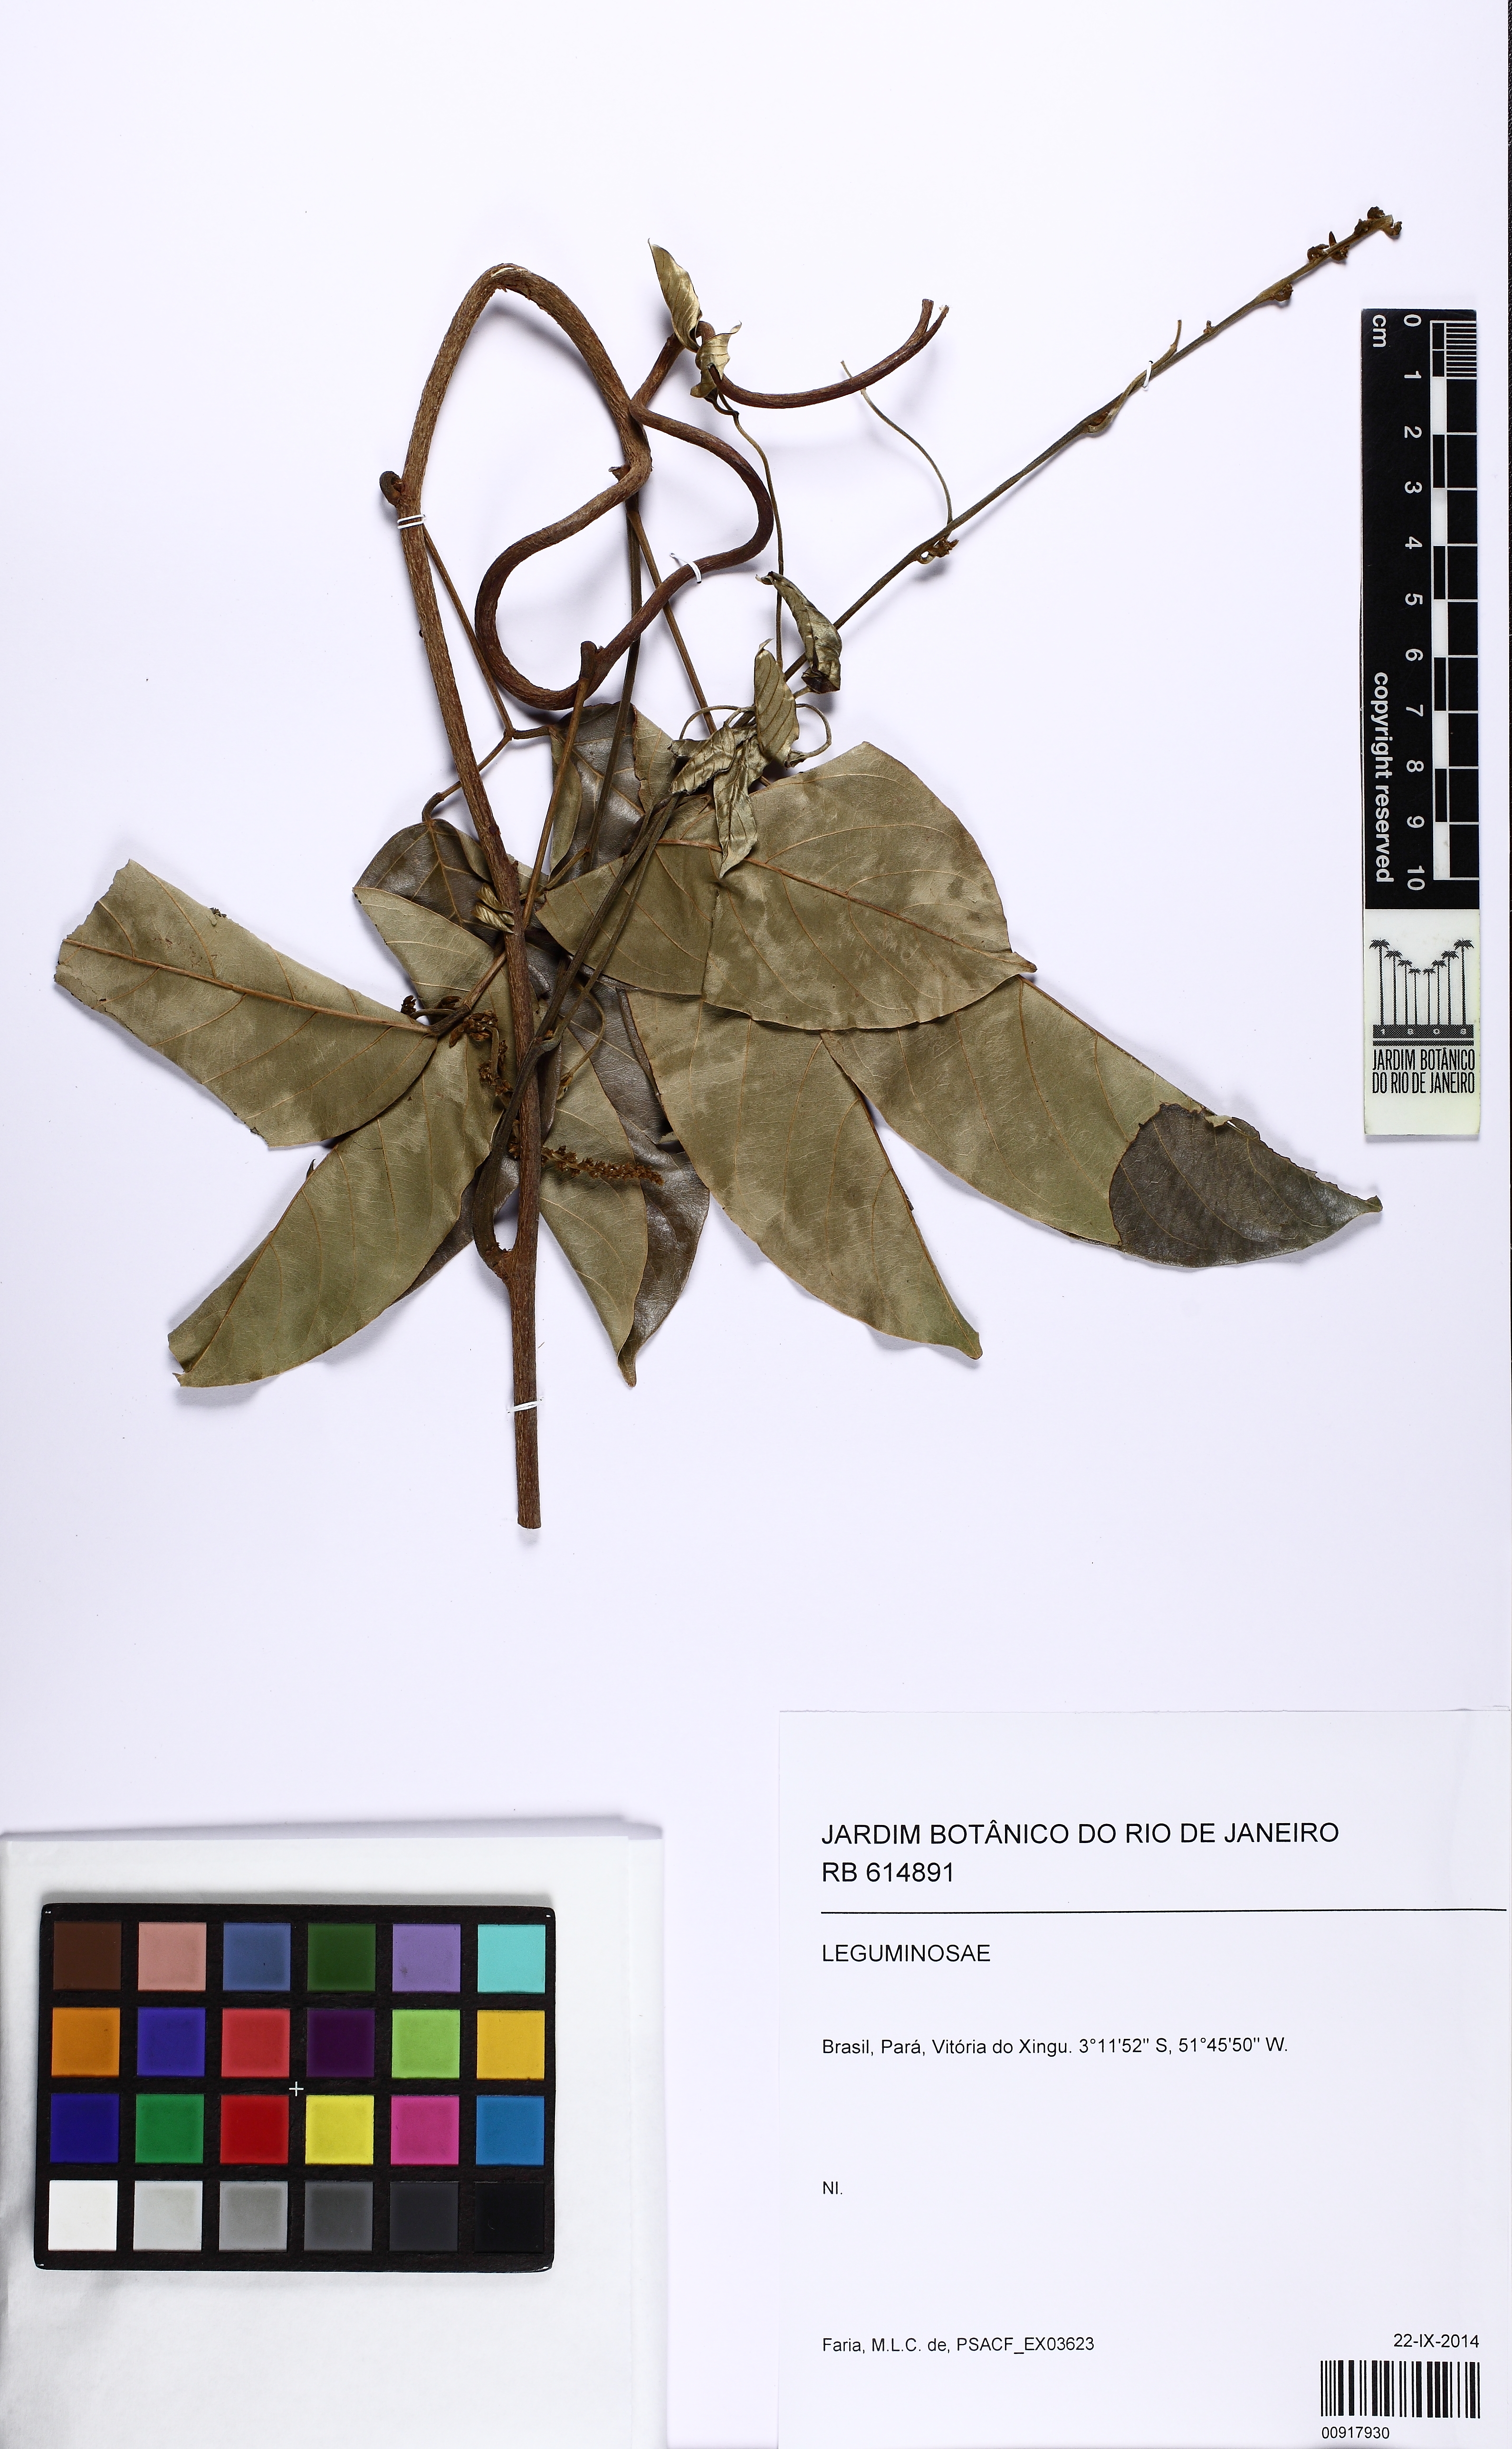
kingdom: Plantae
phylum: Tracheophyta
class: Magnoliopsida
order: Fabales
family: Fabaceae
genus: Dioclea
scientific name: Dioclea
